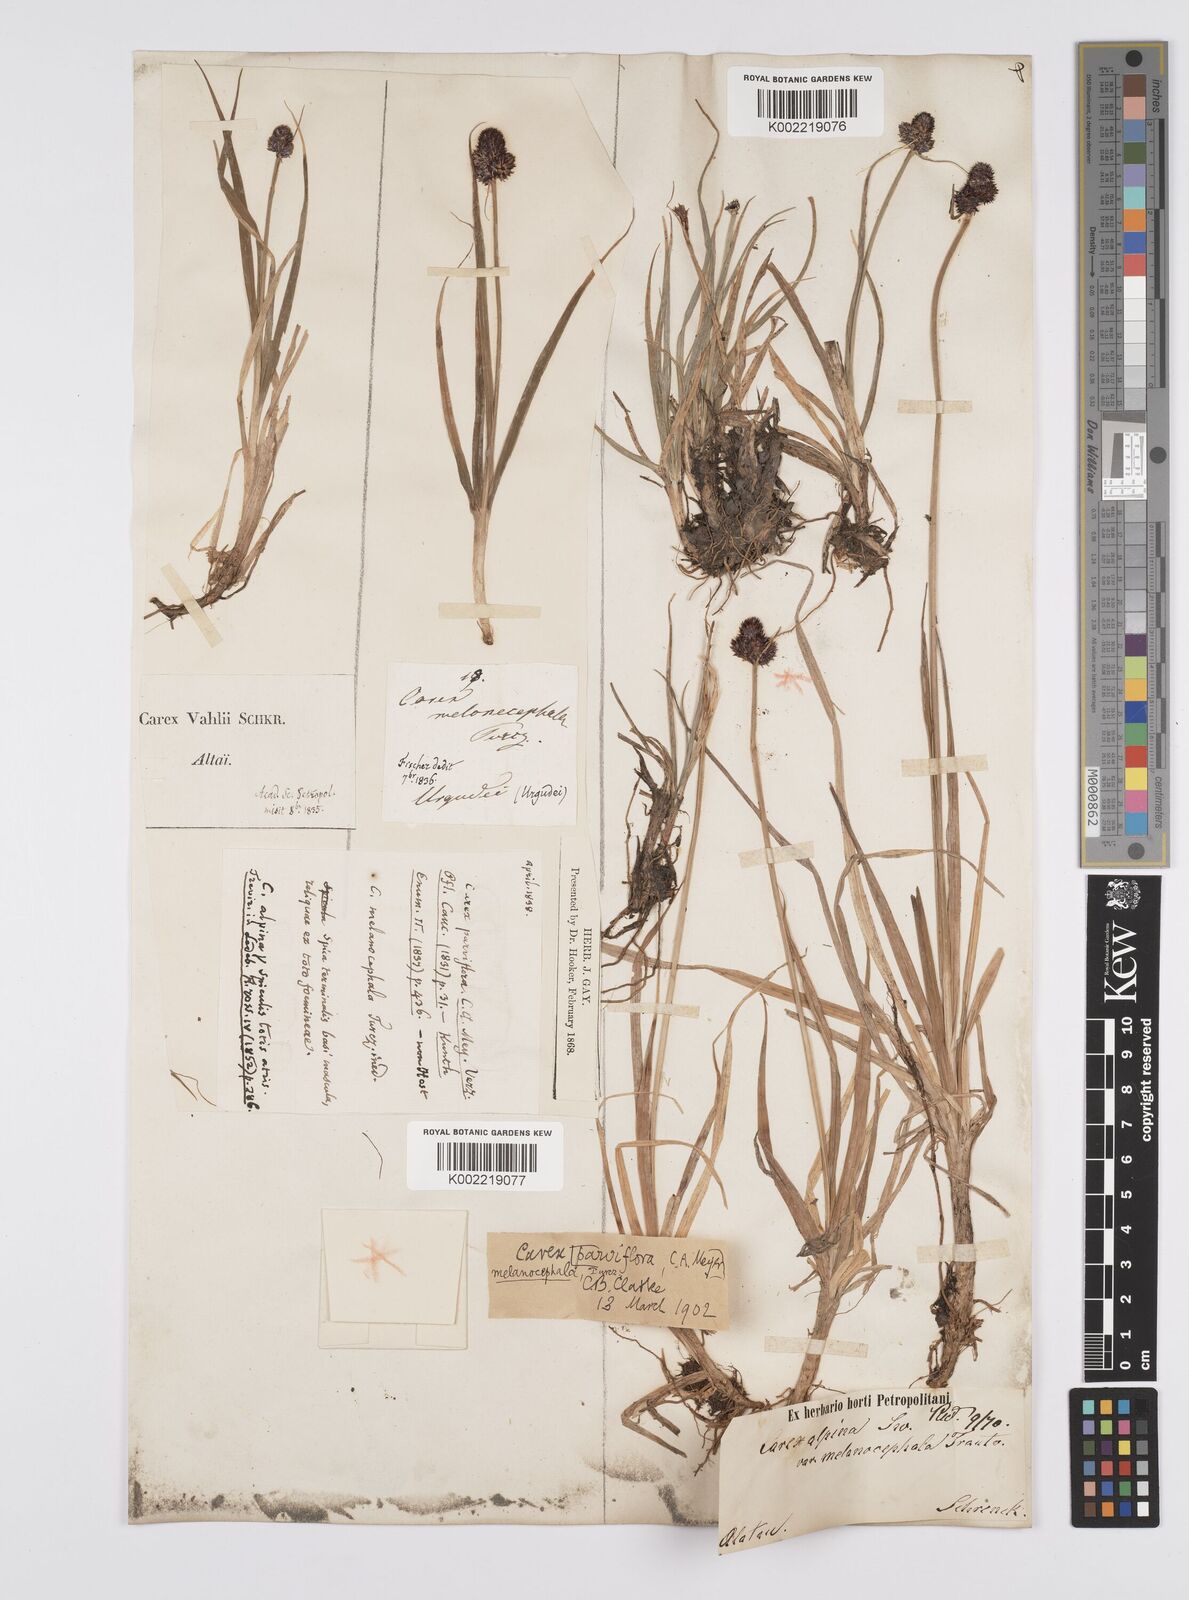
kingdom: Plantae
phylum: Tracheophyta
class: Liliopsida
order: Poales
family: Cyperaceae
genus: Carex
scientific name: Carex oligantha
